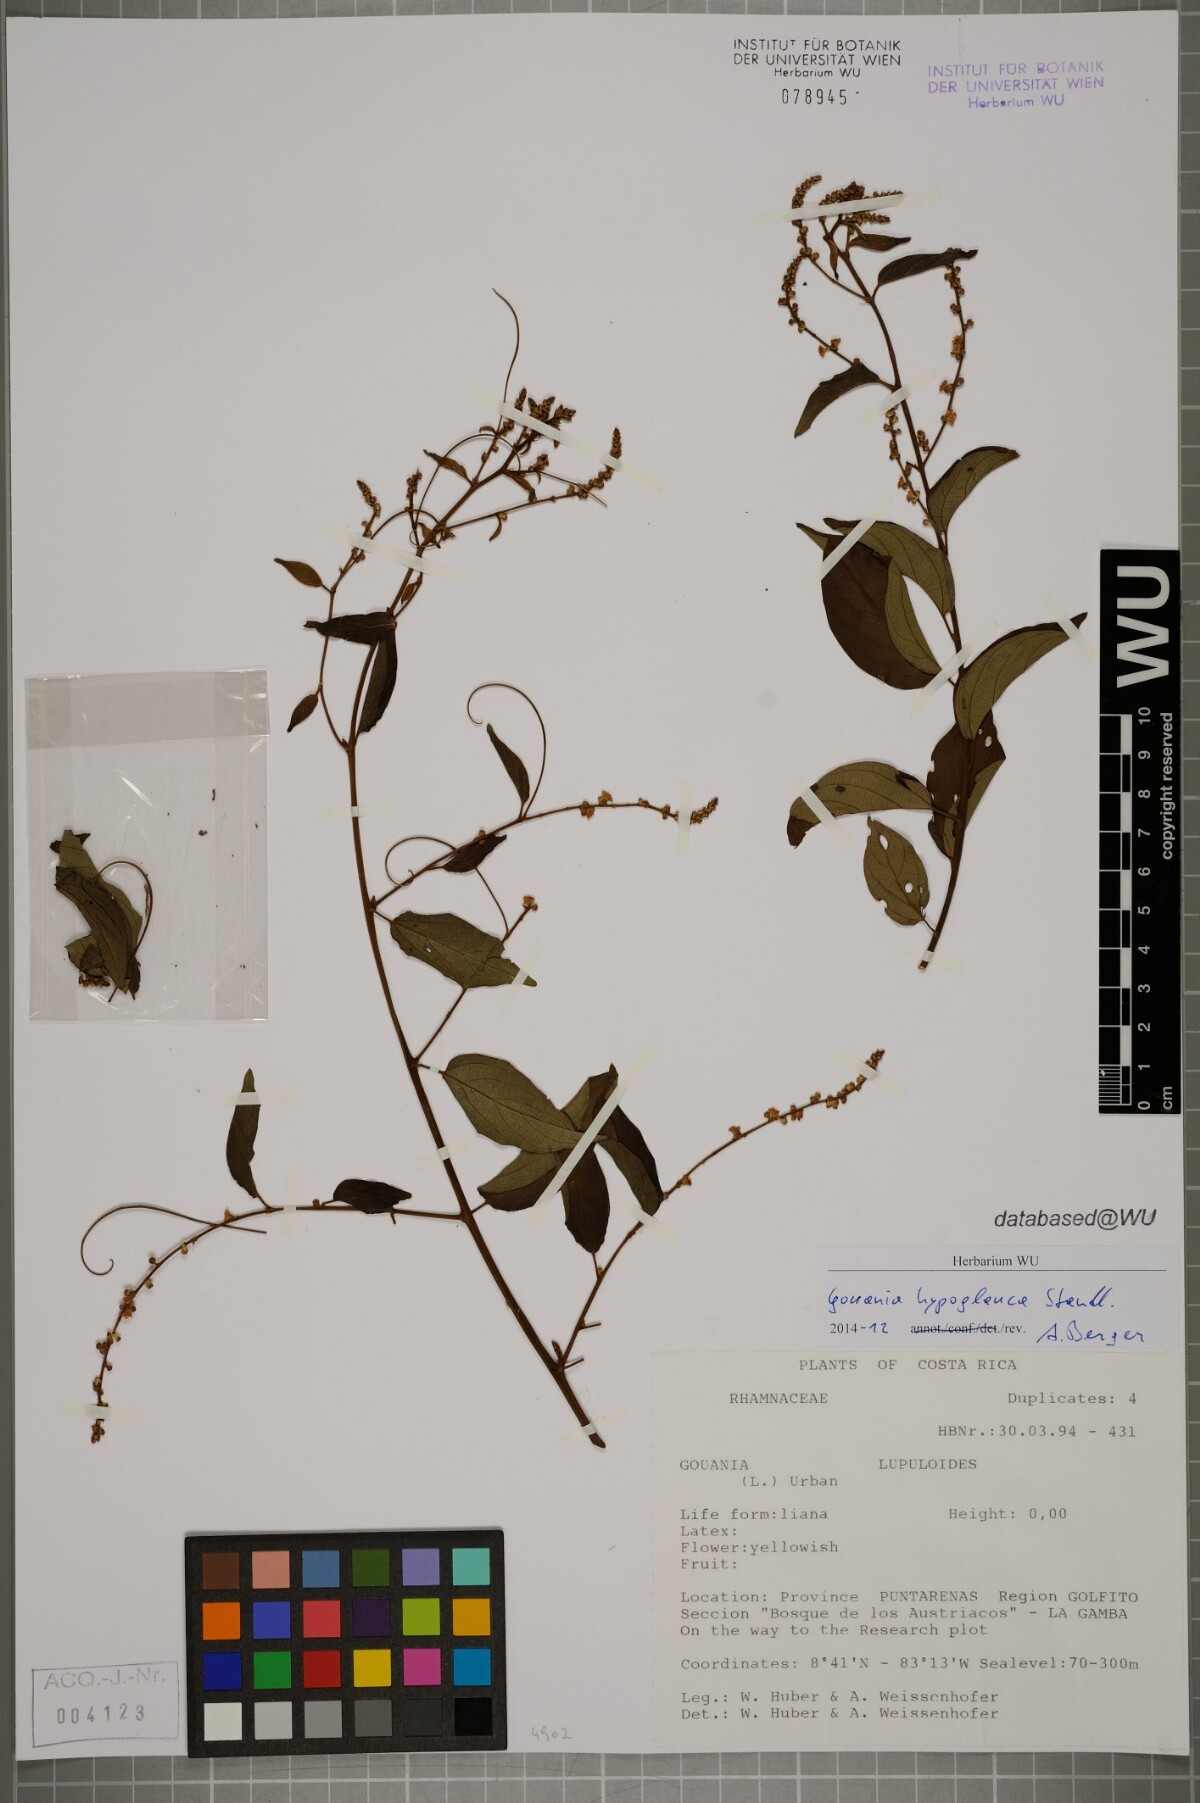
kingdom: Plantae
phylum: Tracheophyta
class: Magnoliopsida
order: Rosales
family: Rhamnaceae
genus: Gouania
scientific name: Gouania hypoglauca
